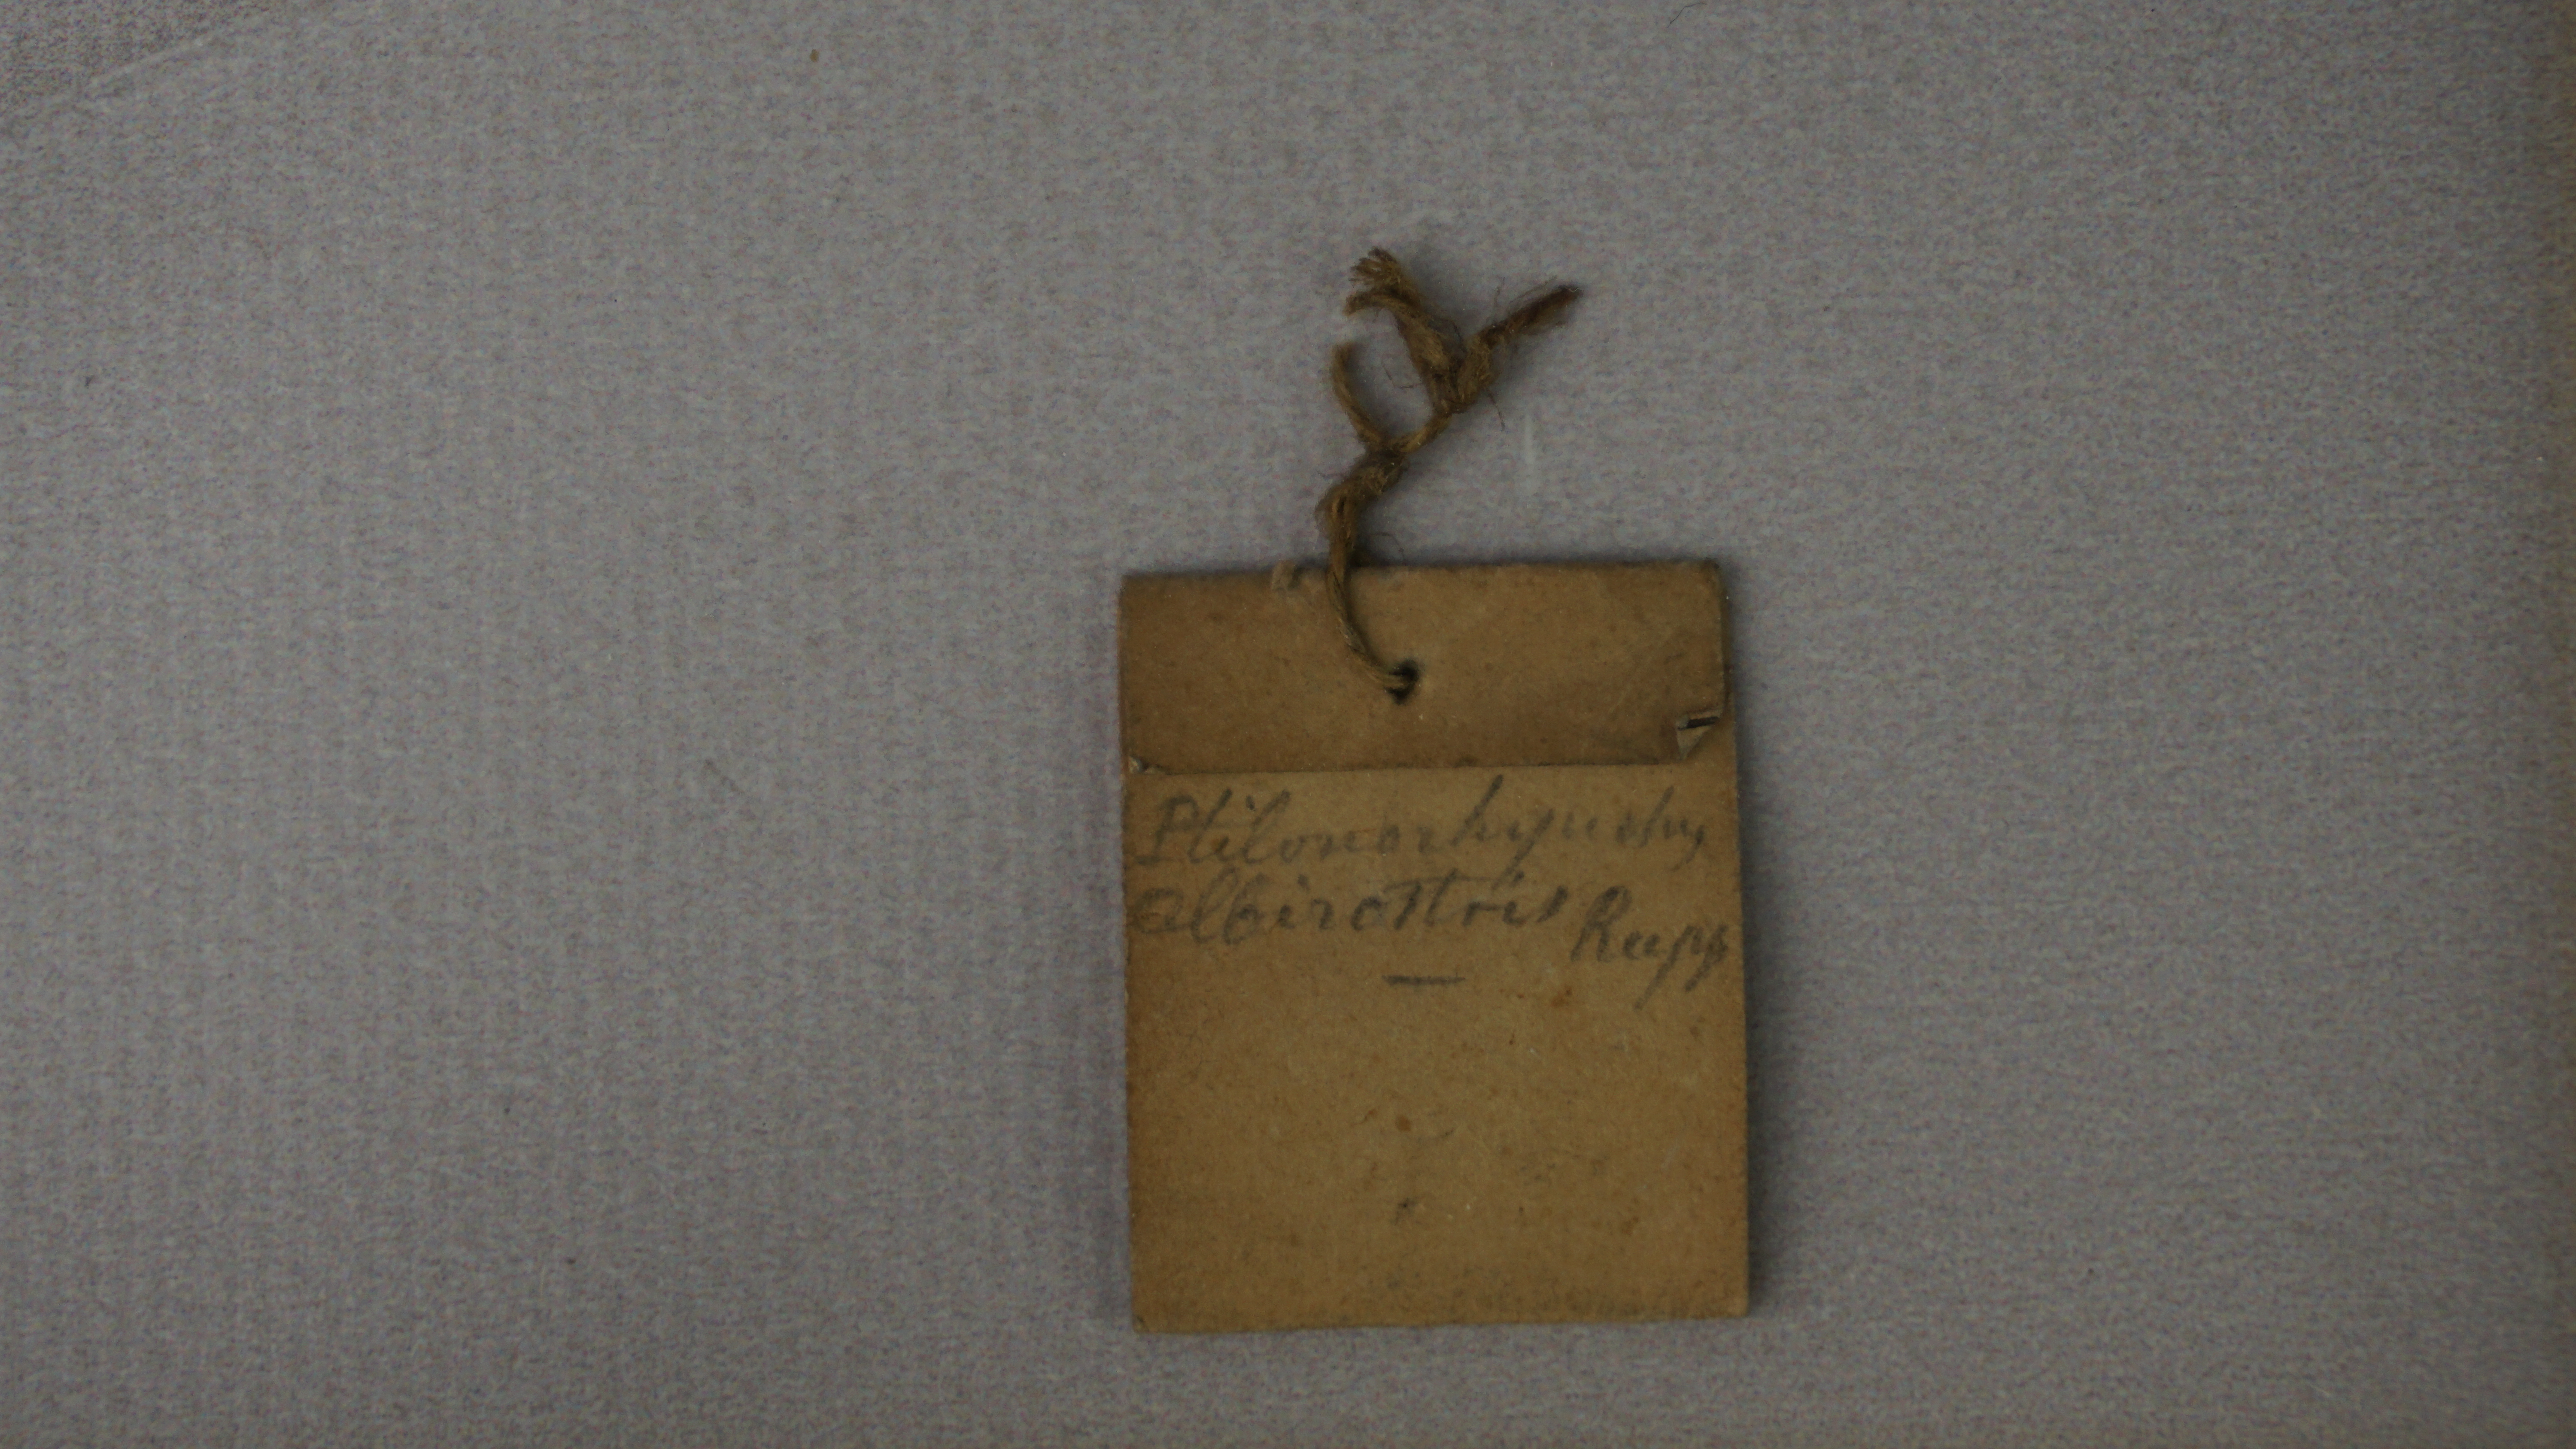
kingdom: Animalia
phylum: Chordata
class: Aves
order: Passeriformes
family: Sturnidae
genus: Onychognathus
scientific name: Onychognathus albirostris
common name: White-billed starling
